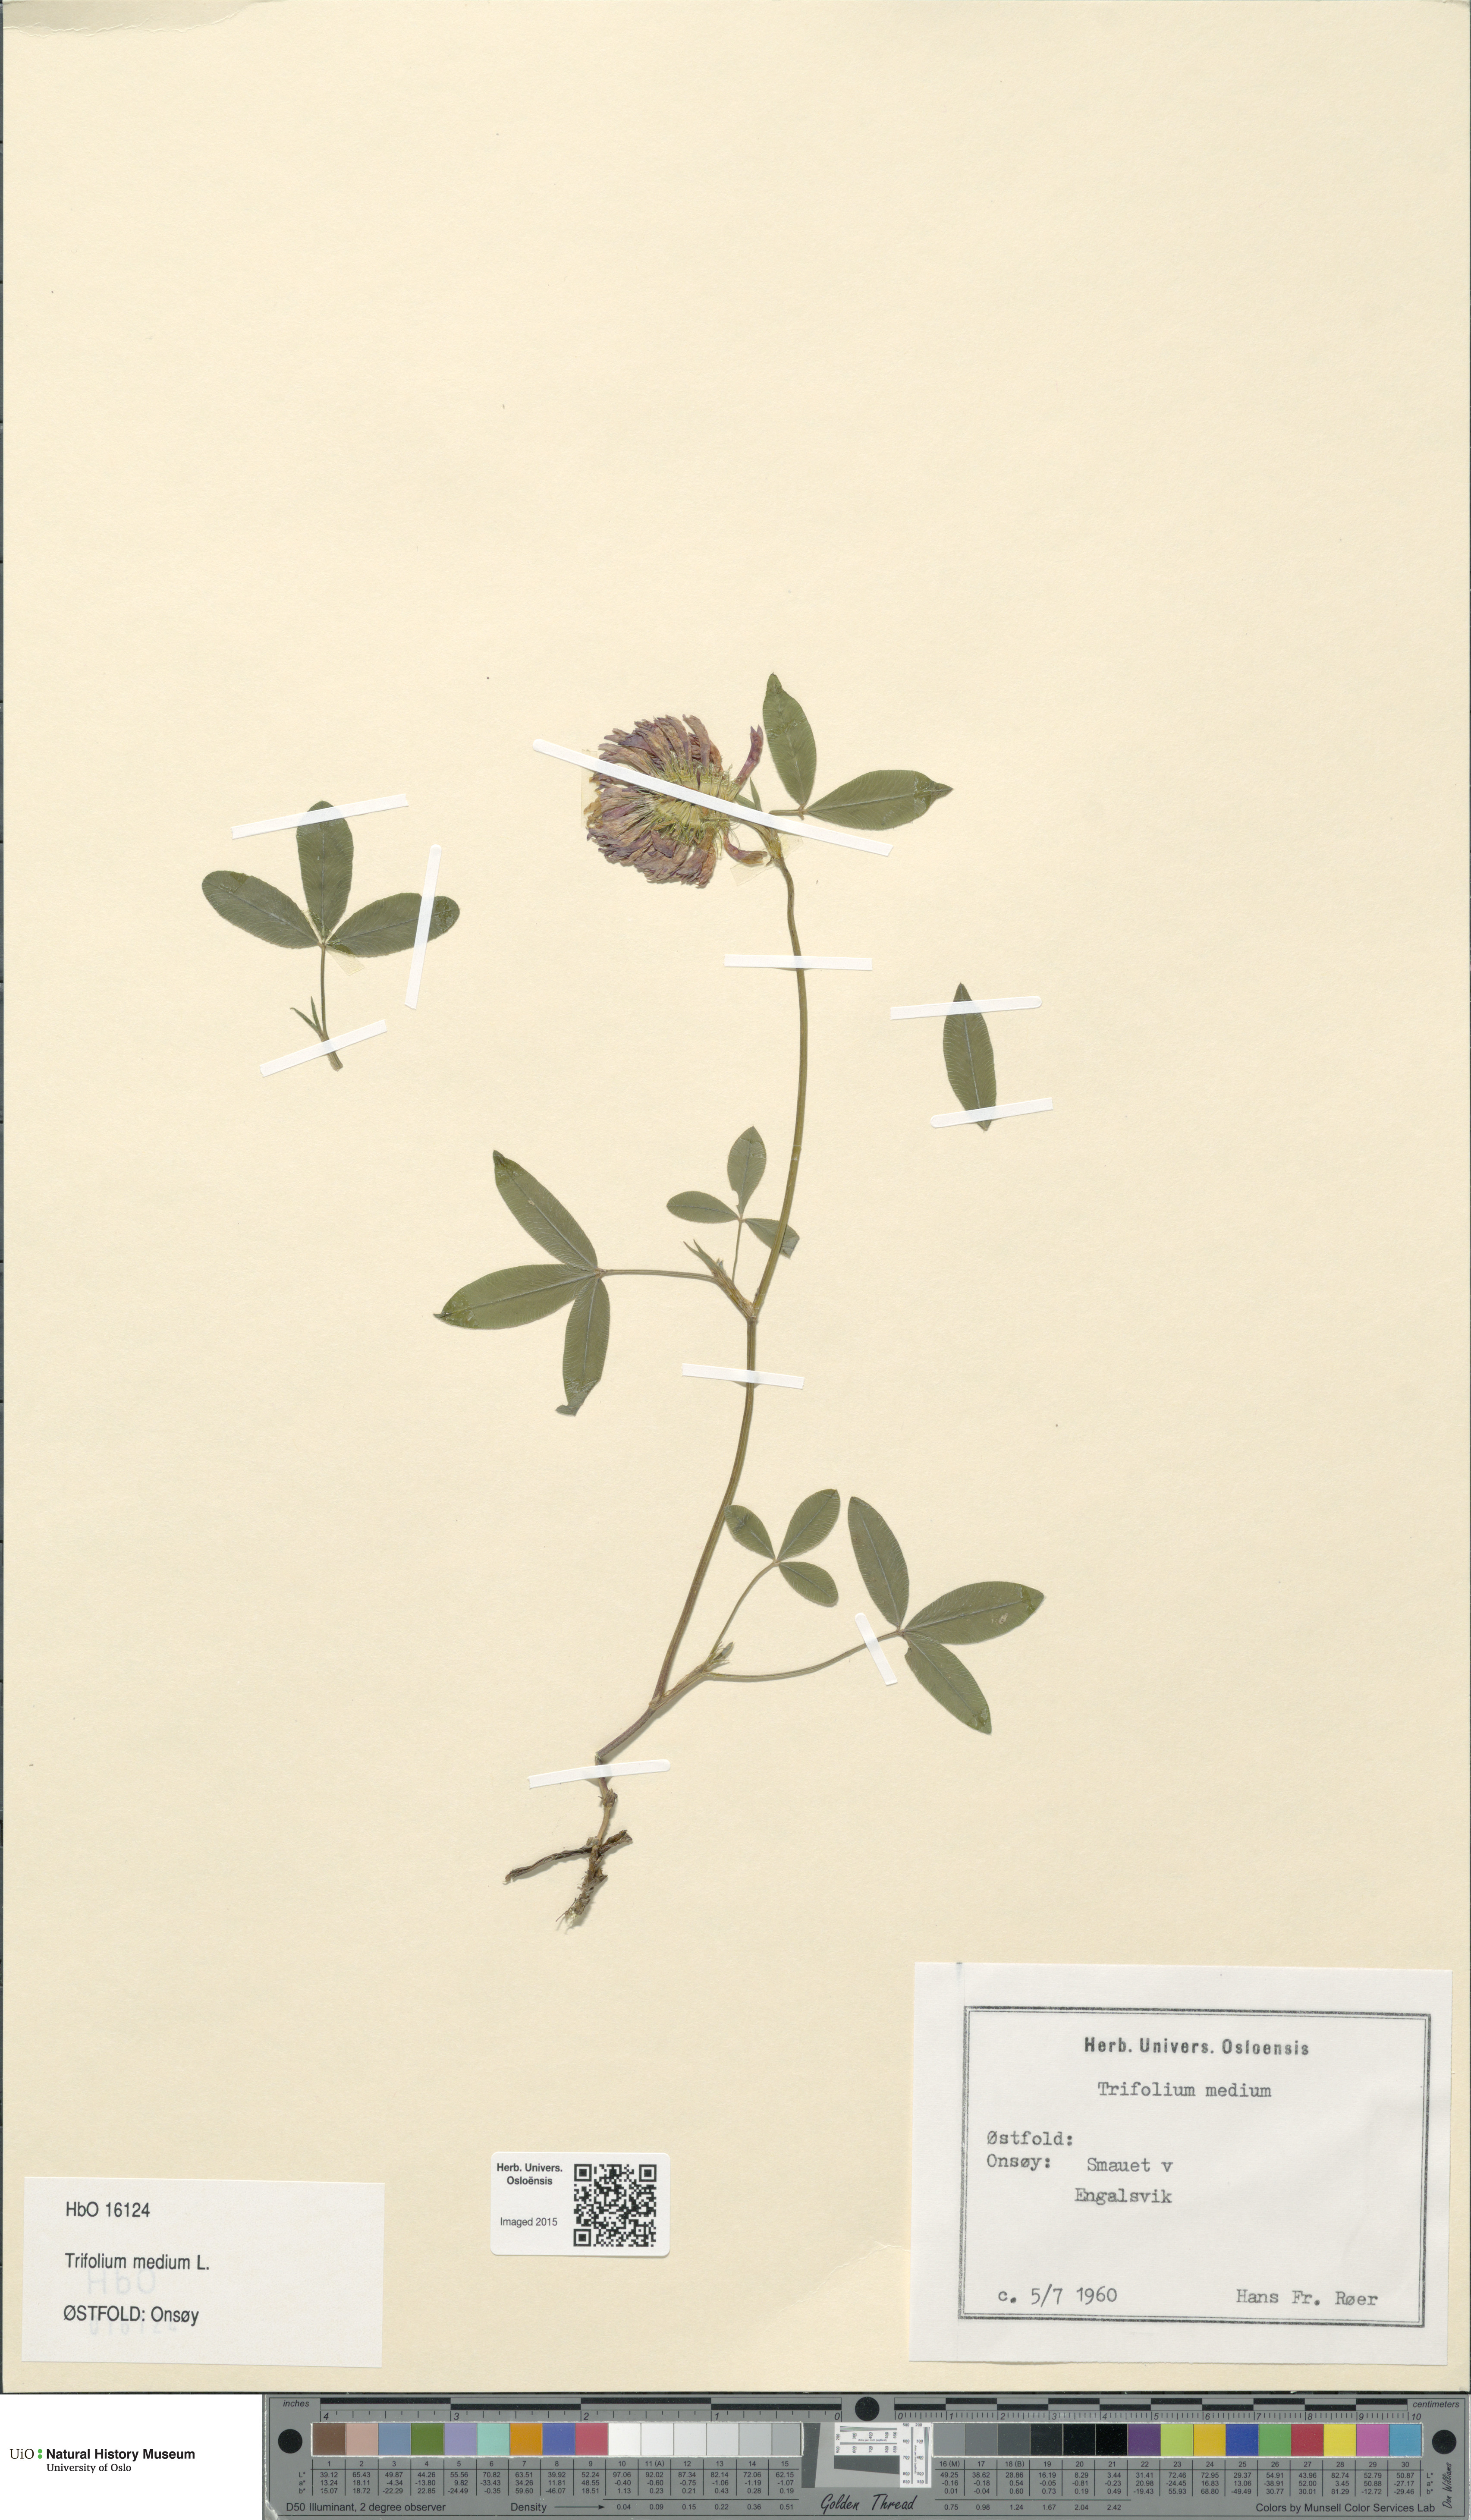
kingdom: Plantae
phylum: Tracheophyta
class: Magnoliopsida
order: Fabales
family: Fabaceae
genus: Trifolium
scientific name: Trifolium medium
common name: Zigzag clover
